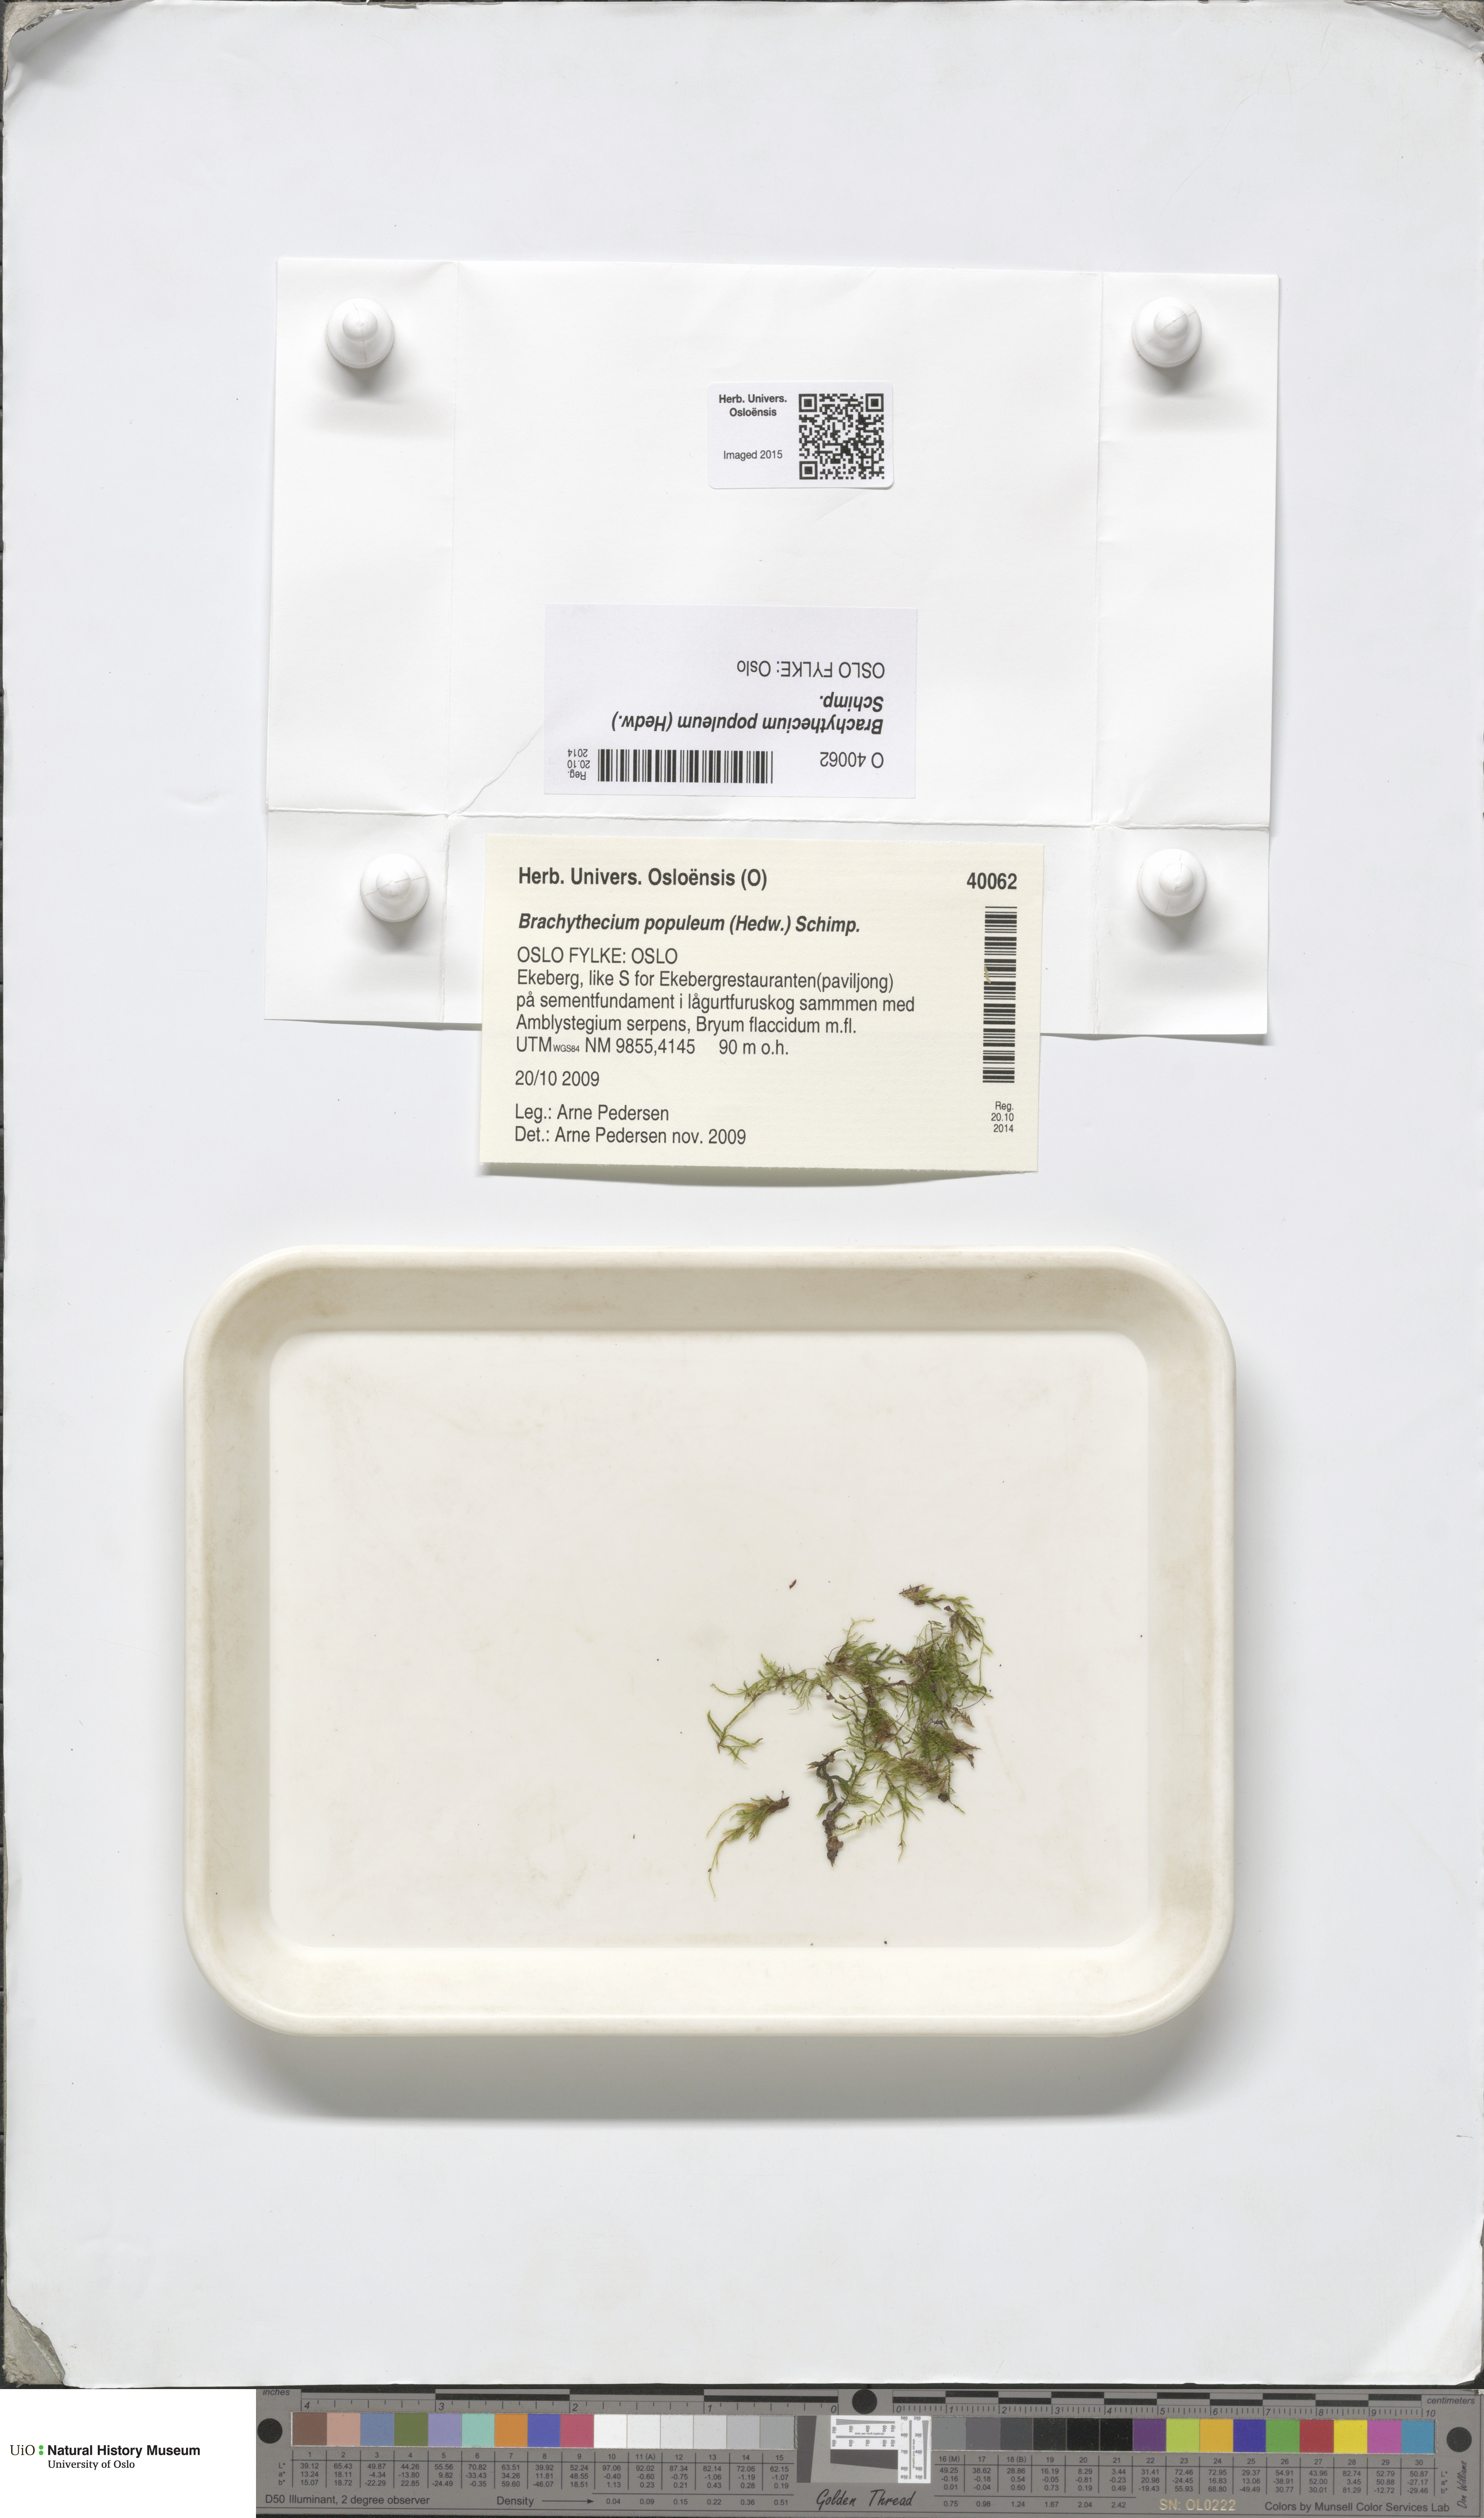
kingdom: Plantae
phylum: Bryophyta
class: Bryopsida
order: Hypnales
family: Brachytheciaceae
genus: Sciuro-hypnum
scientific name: Sciuro-hypnum plumosum
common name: Rusty feather-moss
